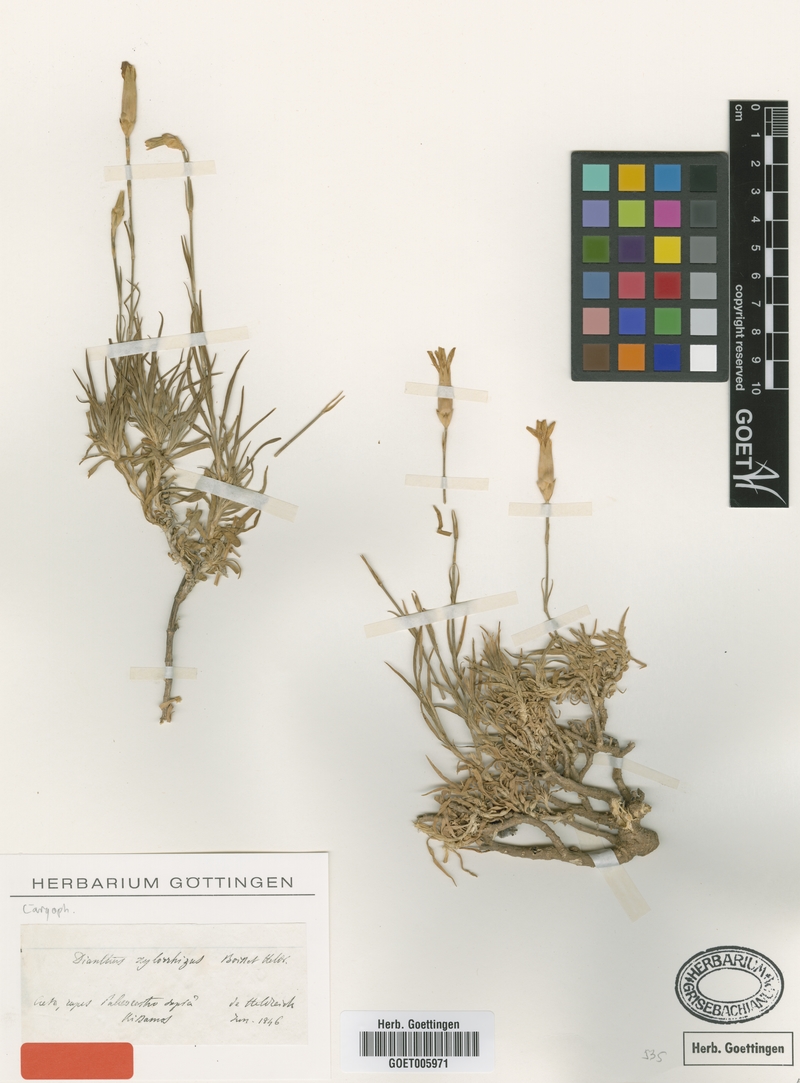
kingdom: Plantae
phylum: Tracheophyta
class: Magnoliopsida
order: Caryophyllales
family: Caryophyllaceae
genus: Dianthus
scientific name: Dianthus xylorrhizus
